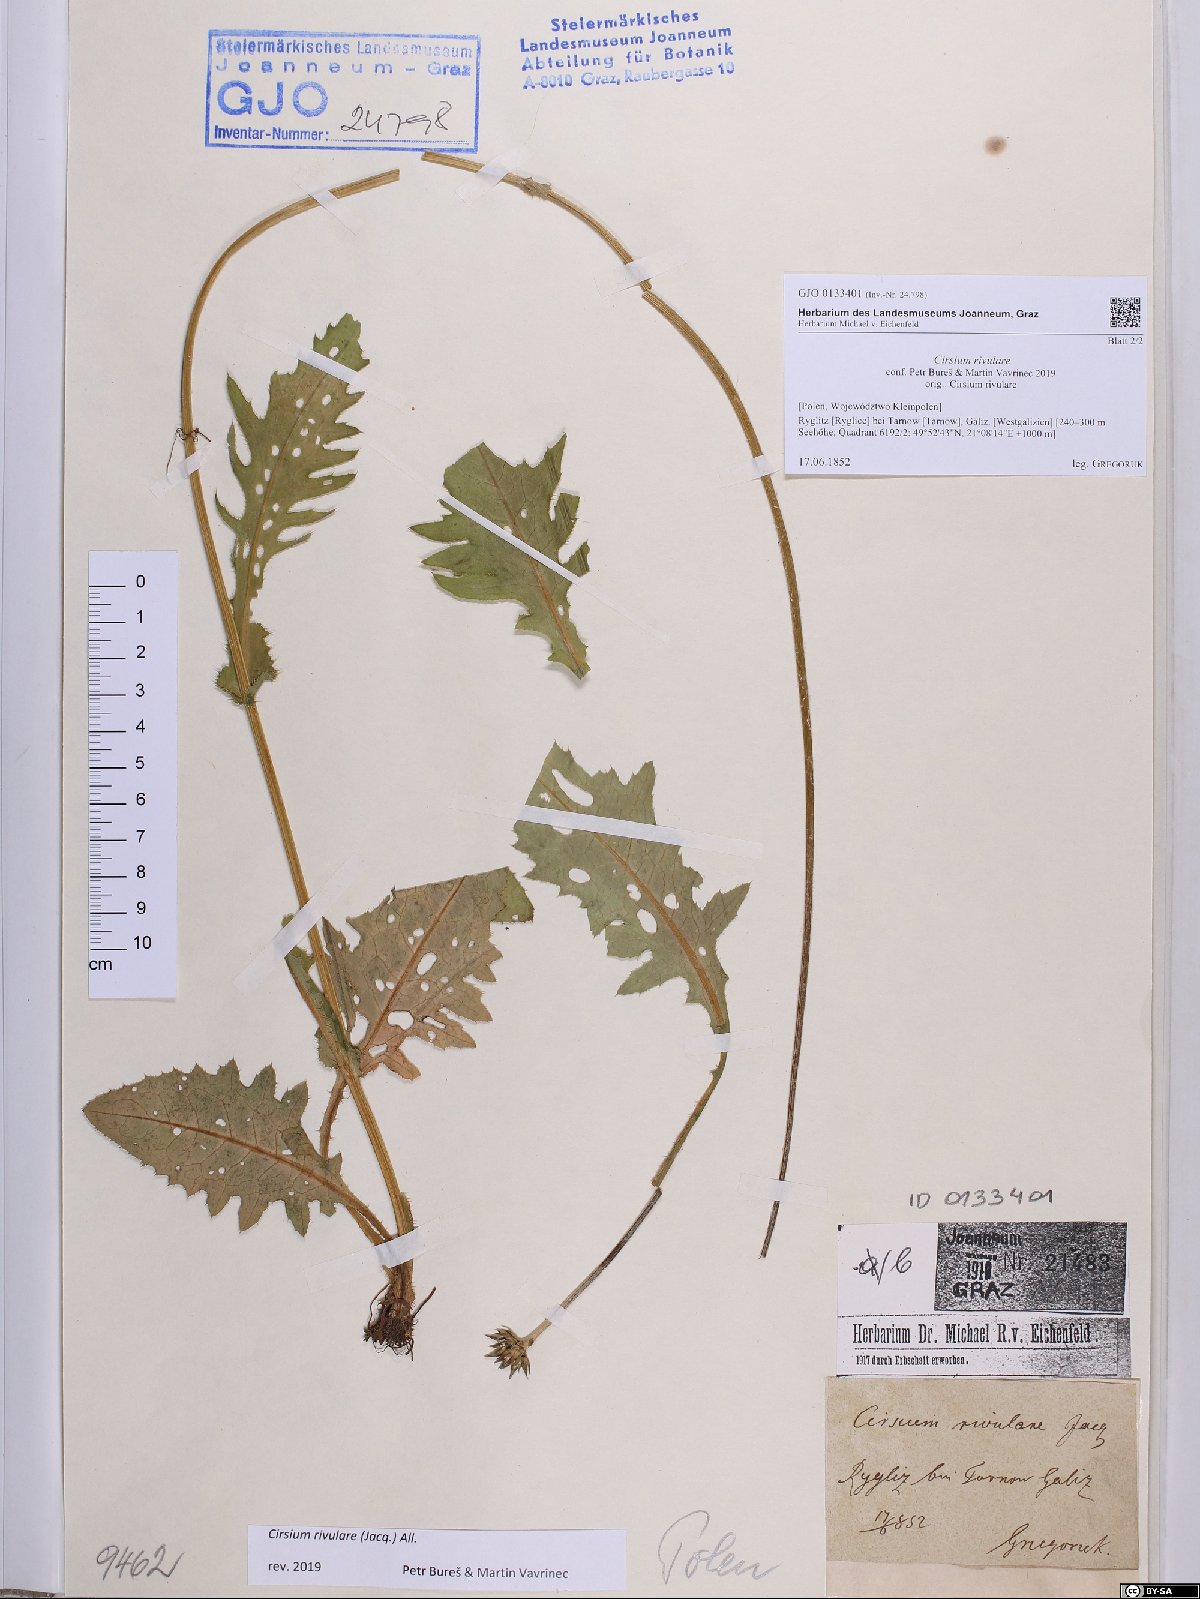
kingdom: Plantae
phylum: Tracheophyta
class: Magnoliopsida
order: Asterales
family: Asteraceae
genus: Cirsium
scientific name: Cirsium rivulare
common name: Brook thistle
